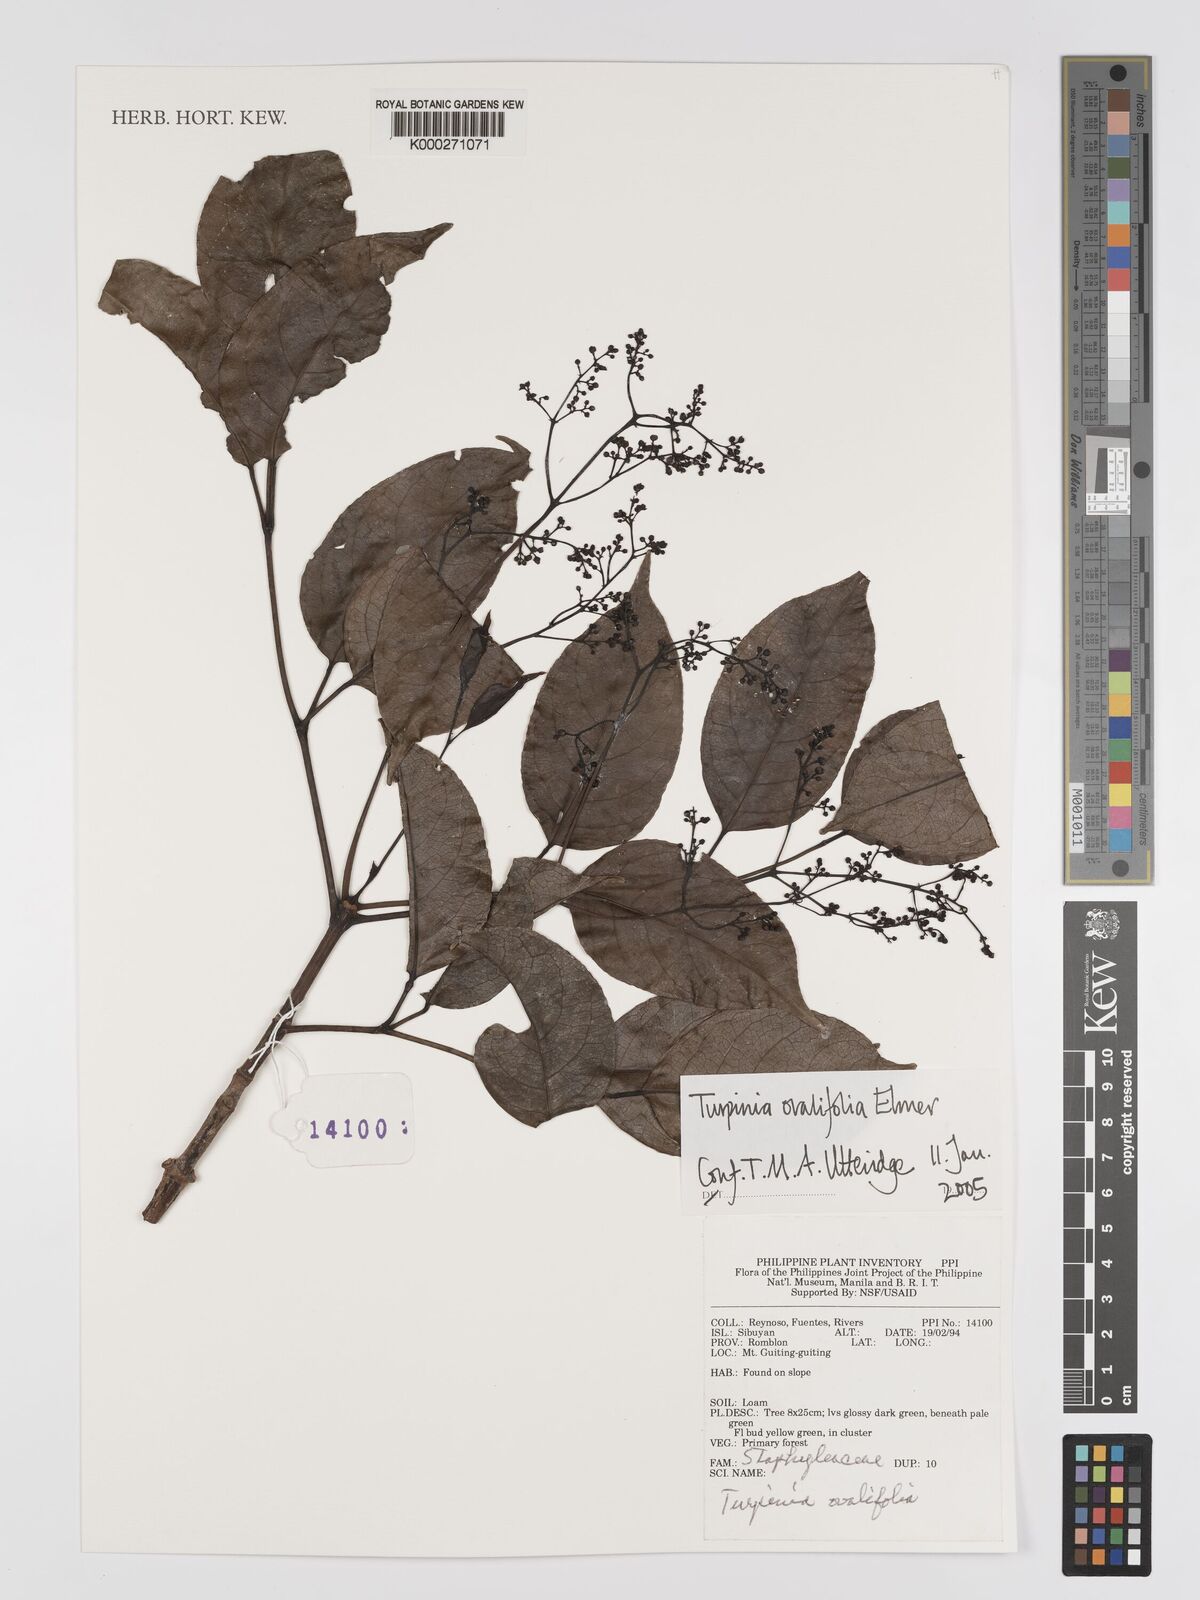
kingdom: Plantae
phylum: Tracheophyta
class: Magnoliopsida
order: Crossosomatales
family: Staphyleaceae
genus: Dalrympelea
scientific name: Dalrympelea trifoliata
